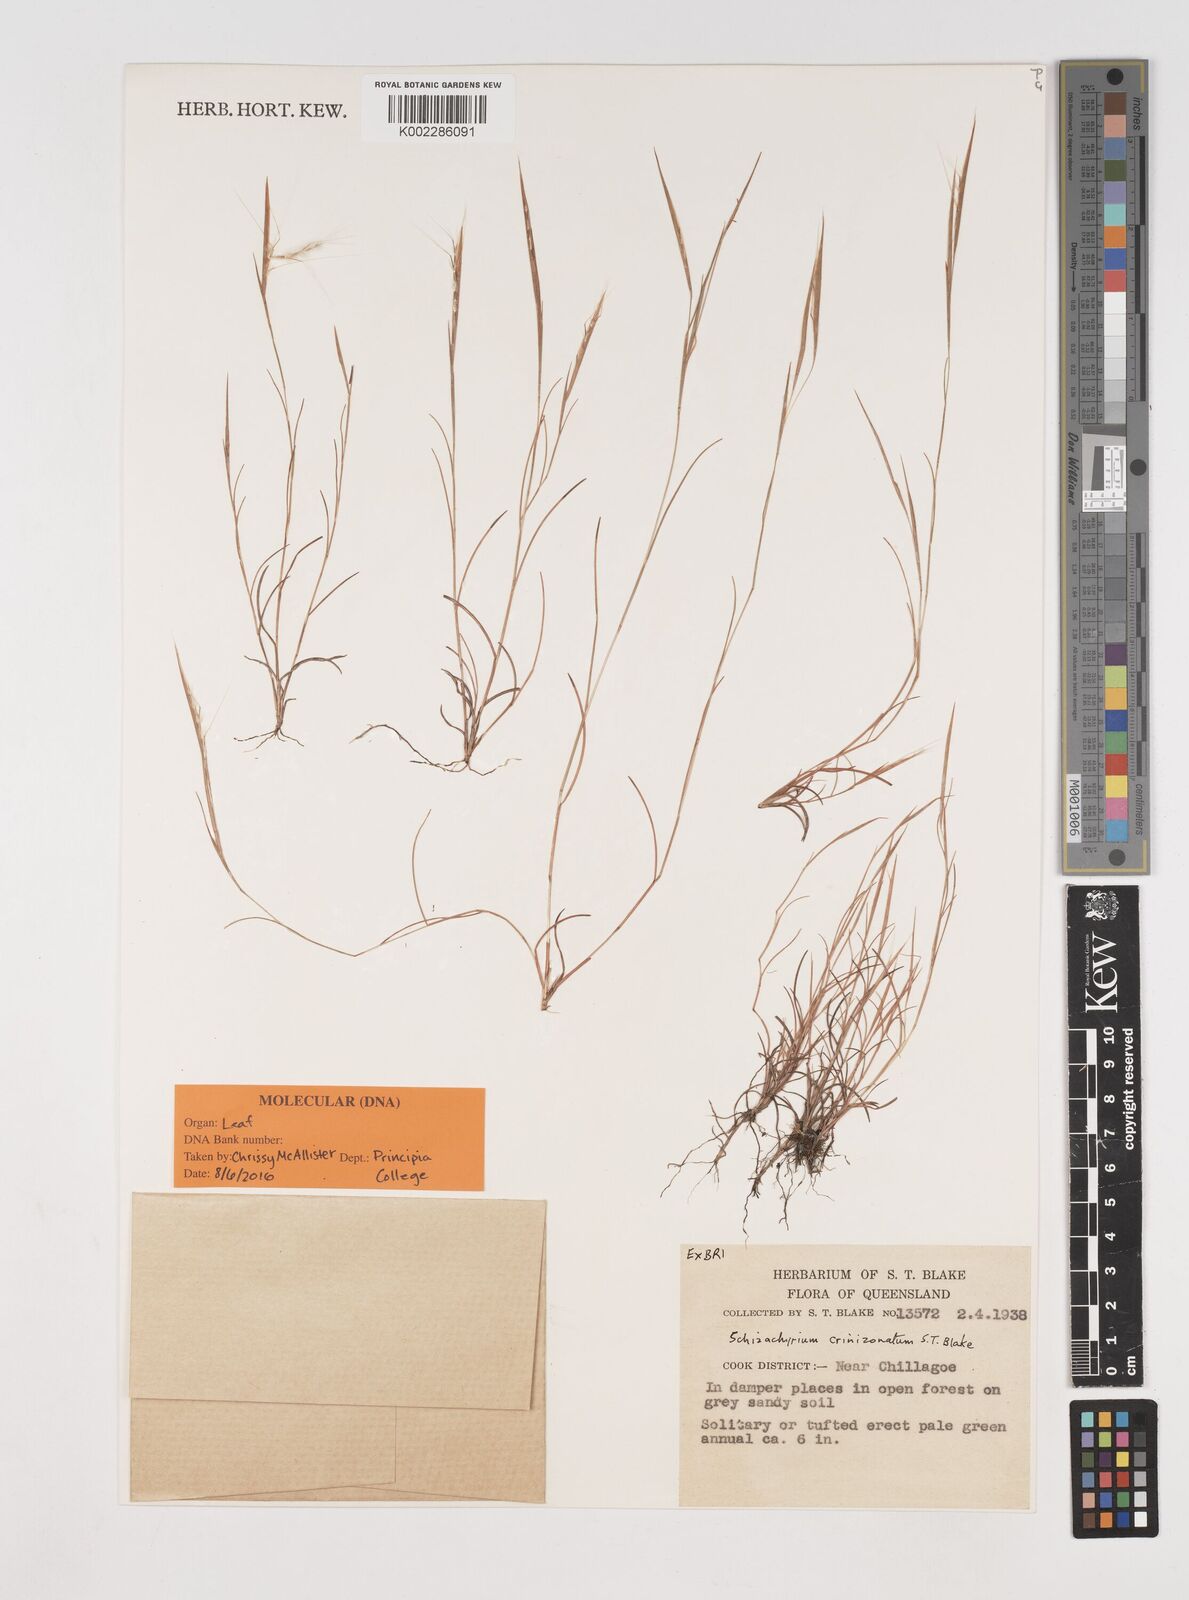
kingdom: Plantae
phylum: Tracheophyta
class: Liliopsida
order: Poales
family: Poaceae
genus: Schizachyrium
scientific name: Schizachyrium crinizonatum
